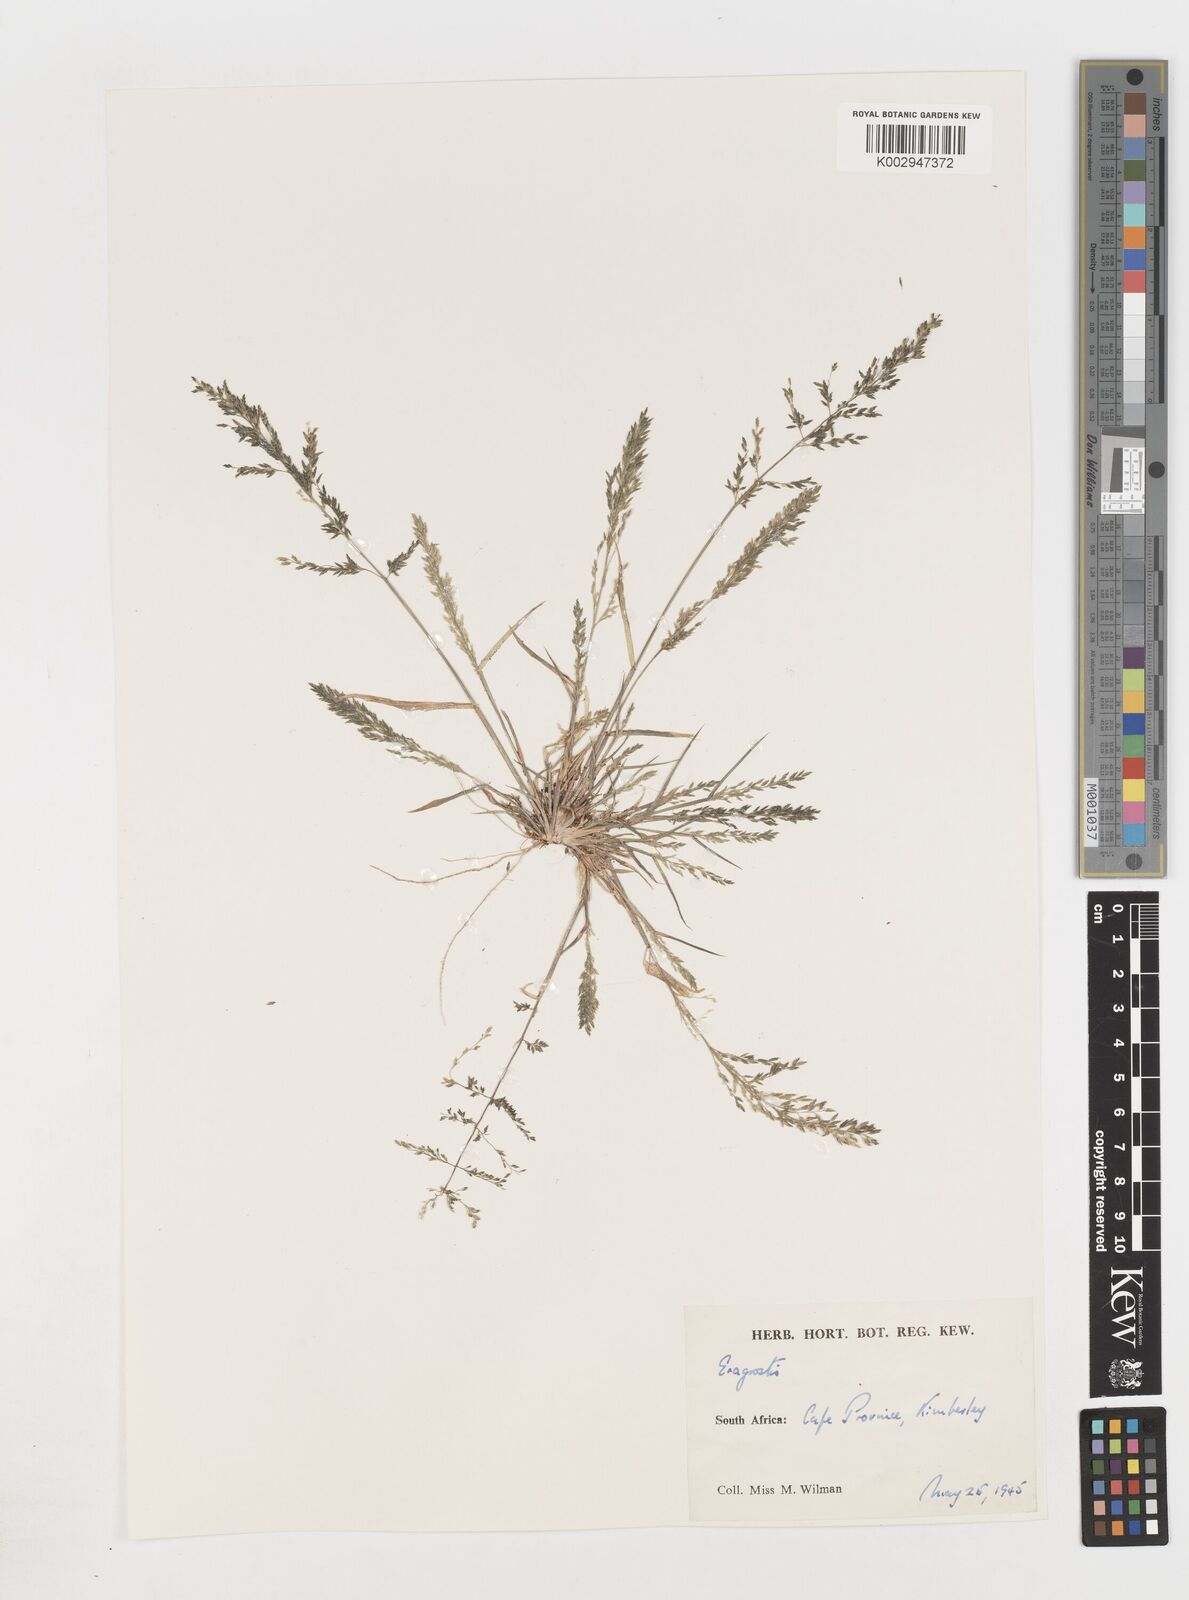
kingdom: Plantae
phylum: Tracheophyta
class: Liliopsida
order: Poales
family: Poaceae
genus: Eragrostis
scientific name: Eragrostis
